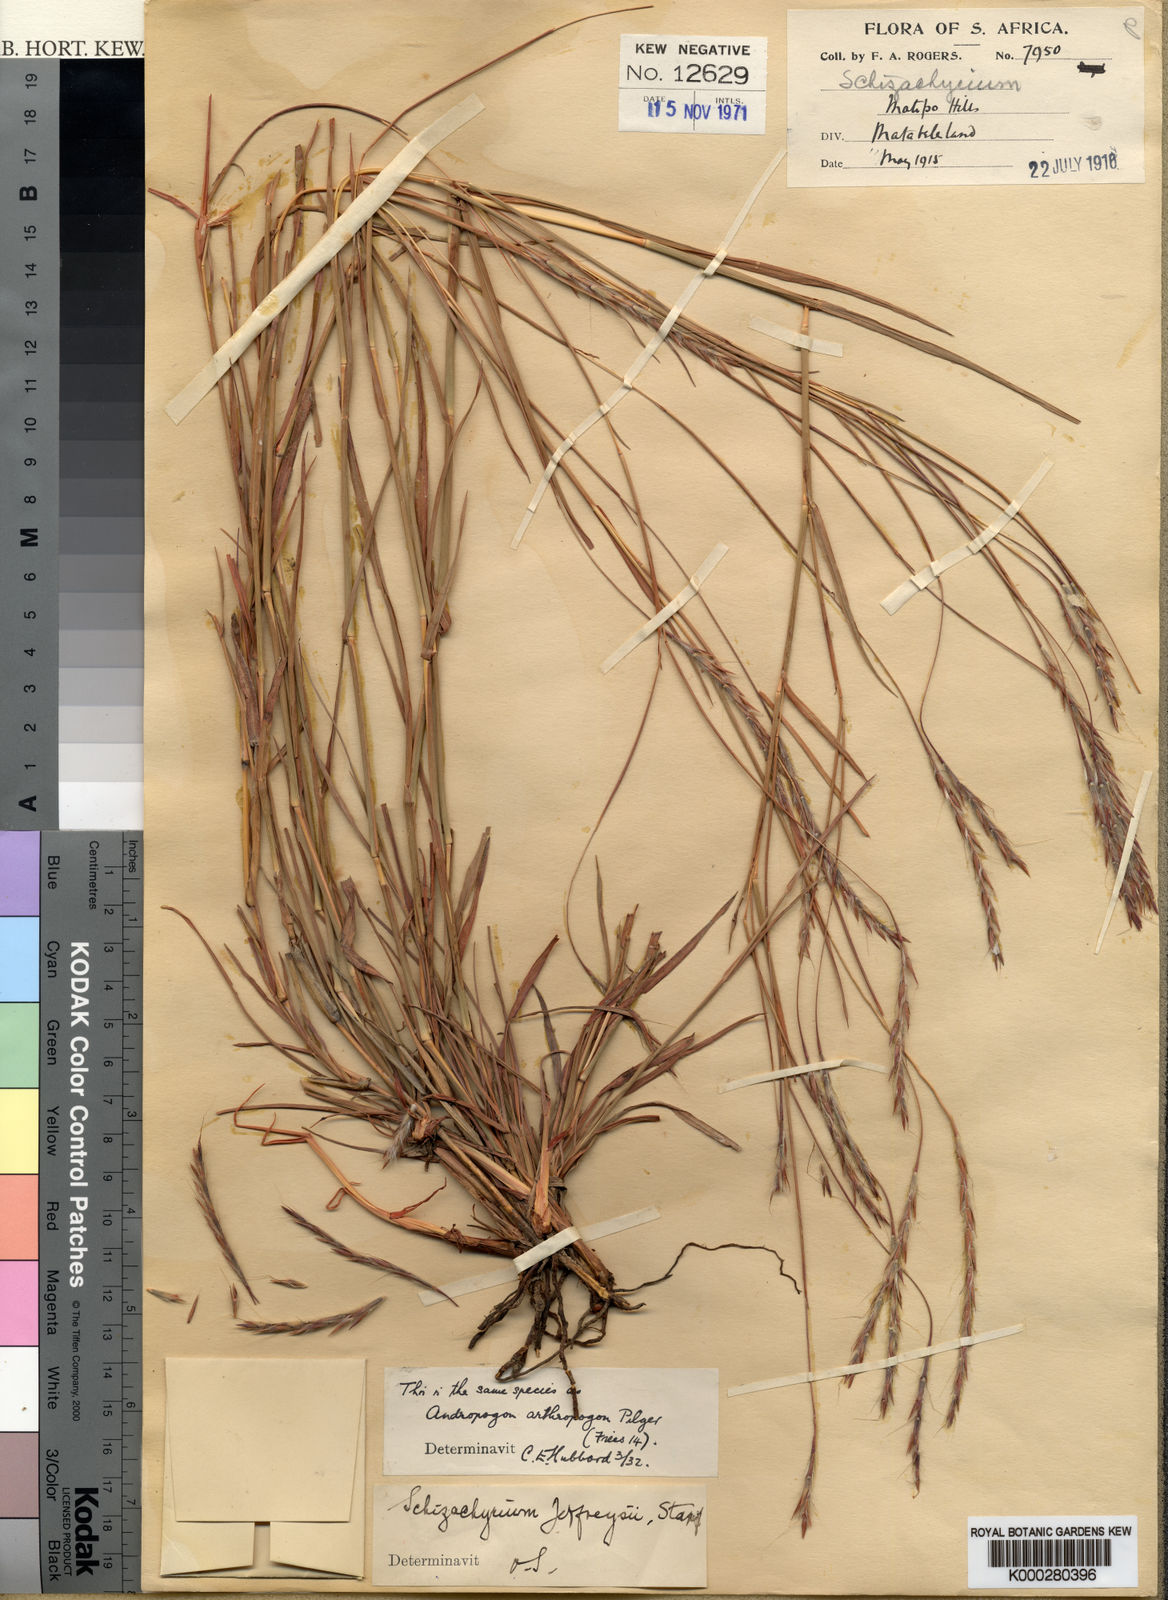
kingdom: Plantae
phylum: Tracheophyta
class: Liliopsida
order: Poales
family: Poaceae
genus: Schizachyrium
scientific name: Schizachyrium jeffreysii
